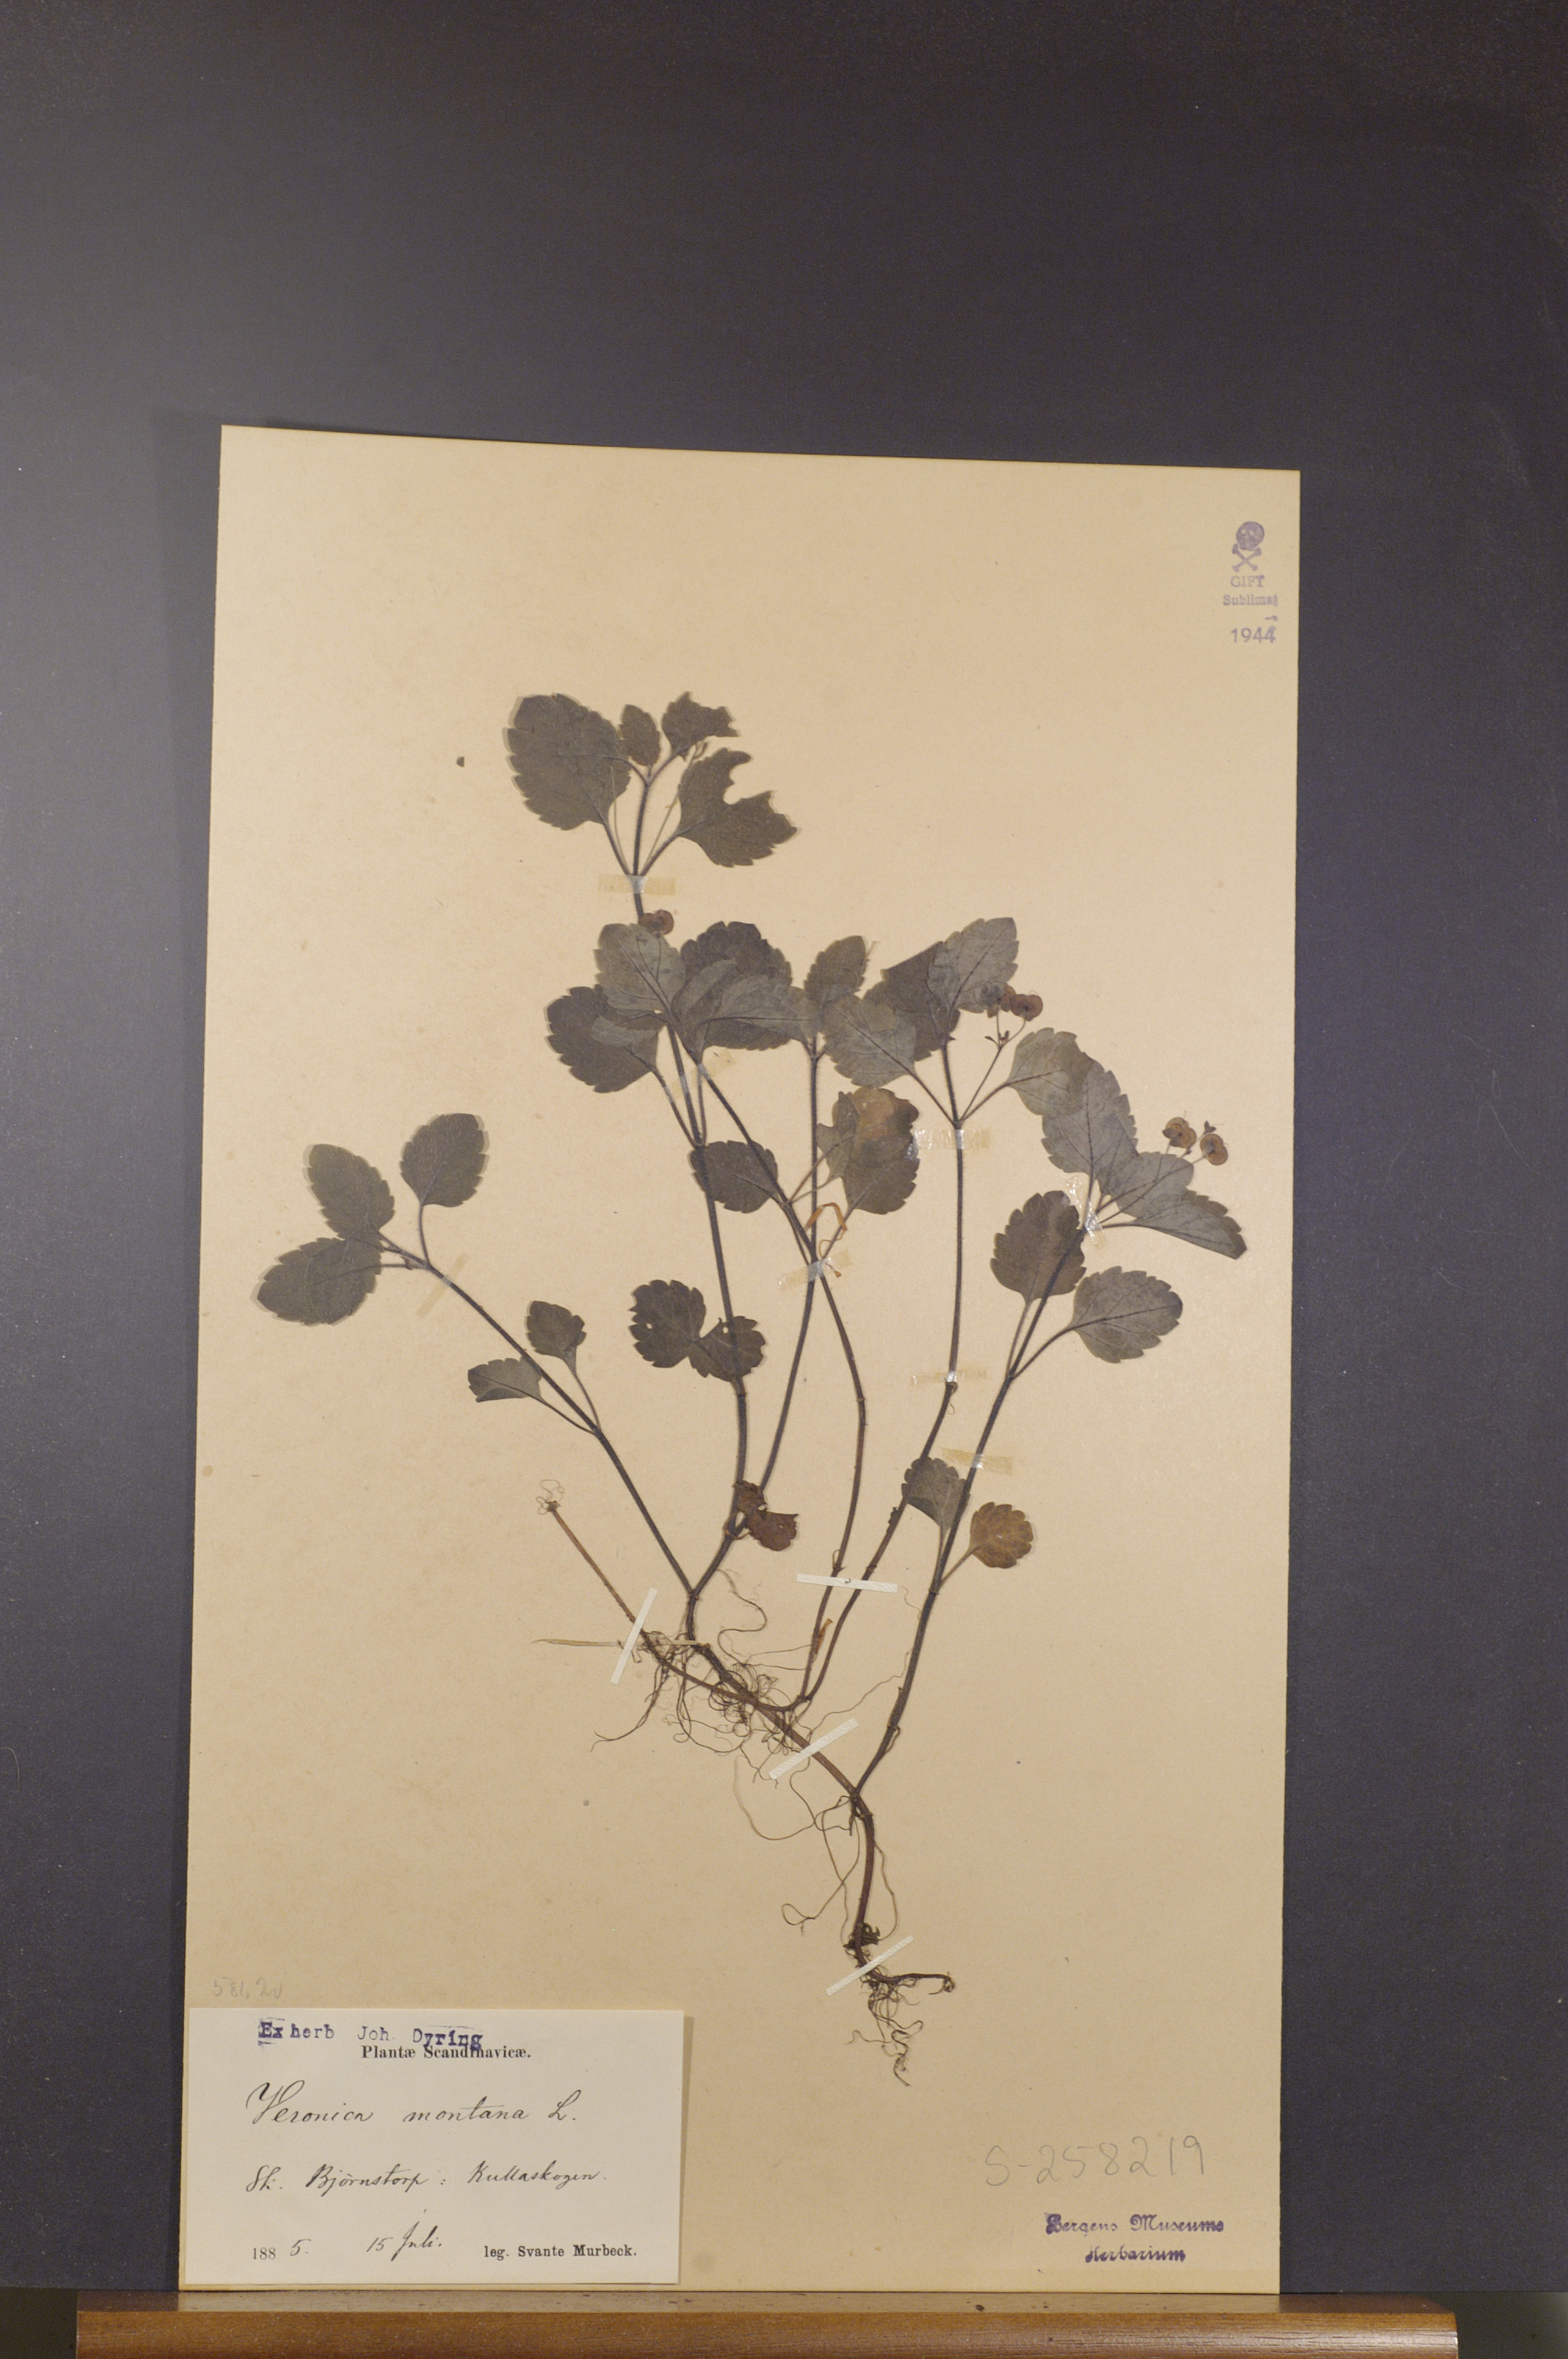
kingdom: Plantae
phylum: Tracheophyta
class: Magnoliopsida
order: Lamiales
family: Plantaginaceae
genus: Veronica
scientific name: Veronica montana
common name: Wood speedwell
